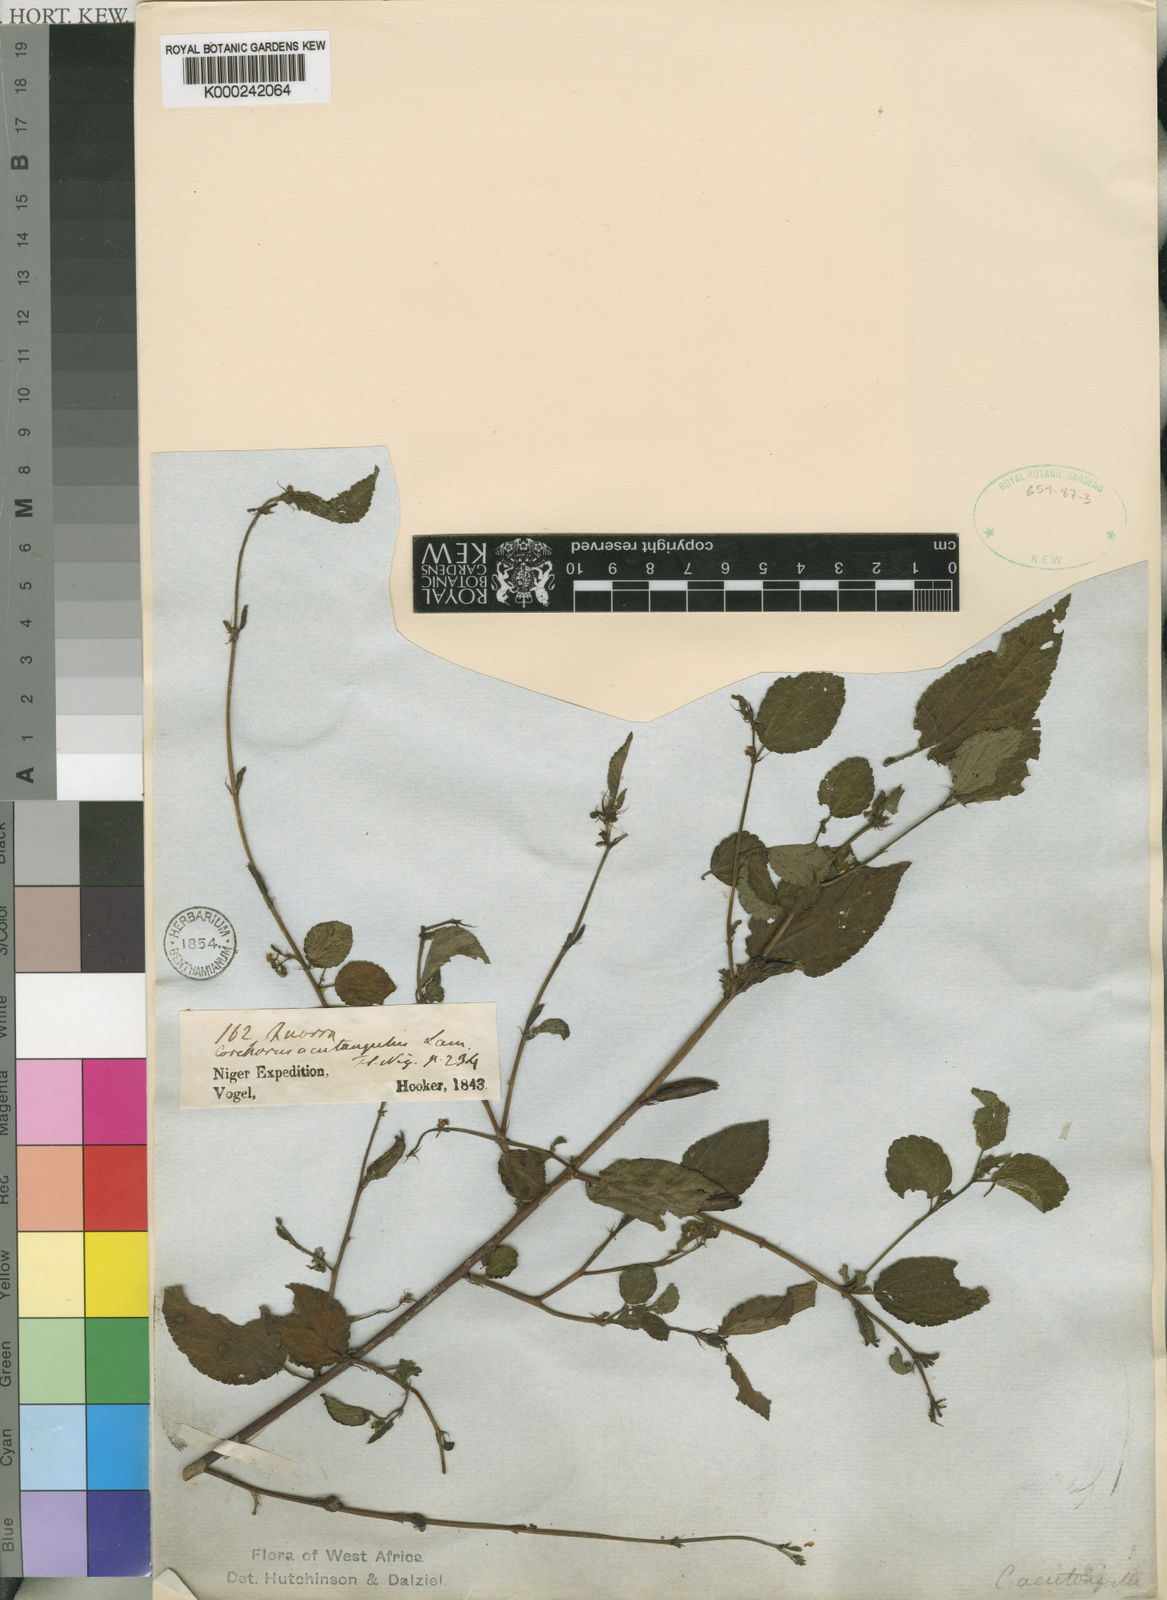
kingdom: Plantae
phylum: Tracheophyta
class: Magnoliopsida
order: Malvales
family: Malvaceae
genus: Corchorus
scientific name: Corchorus aestuans
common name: Jute
